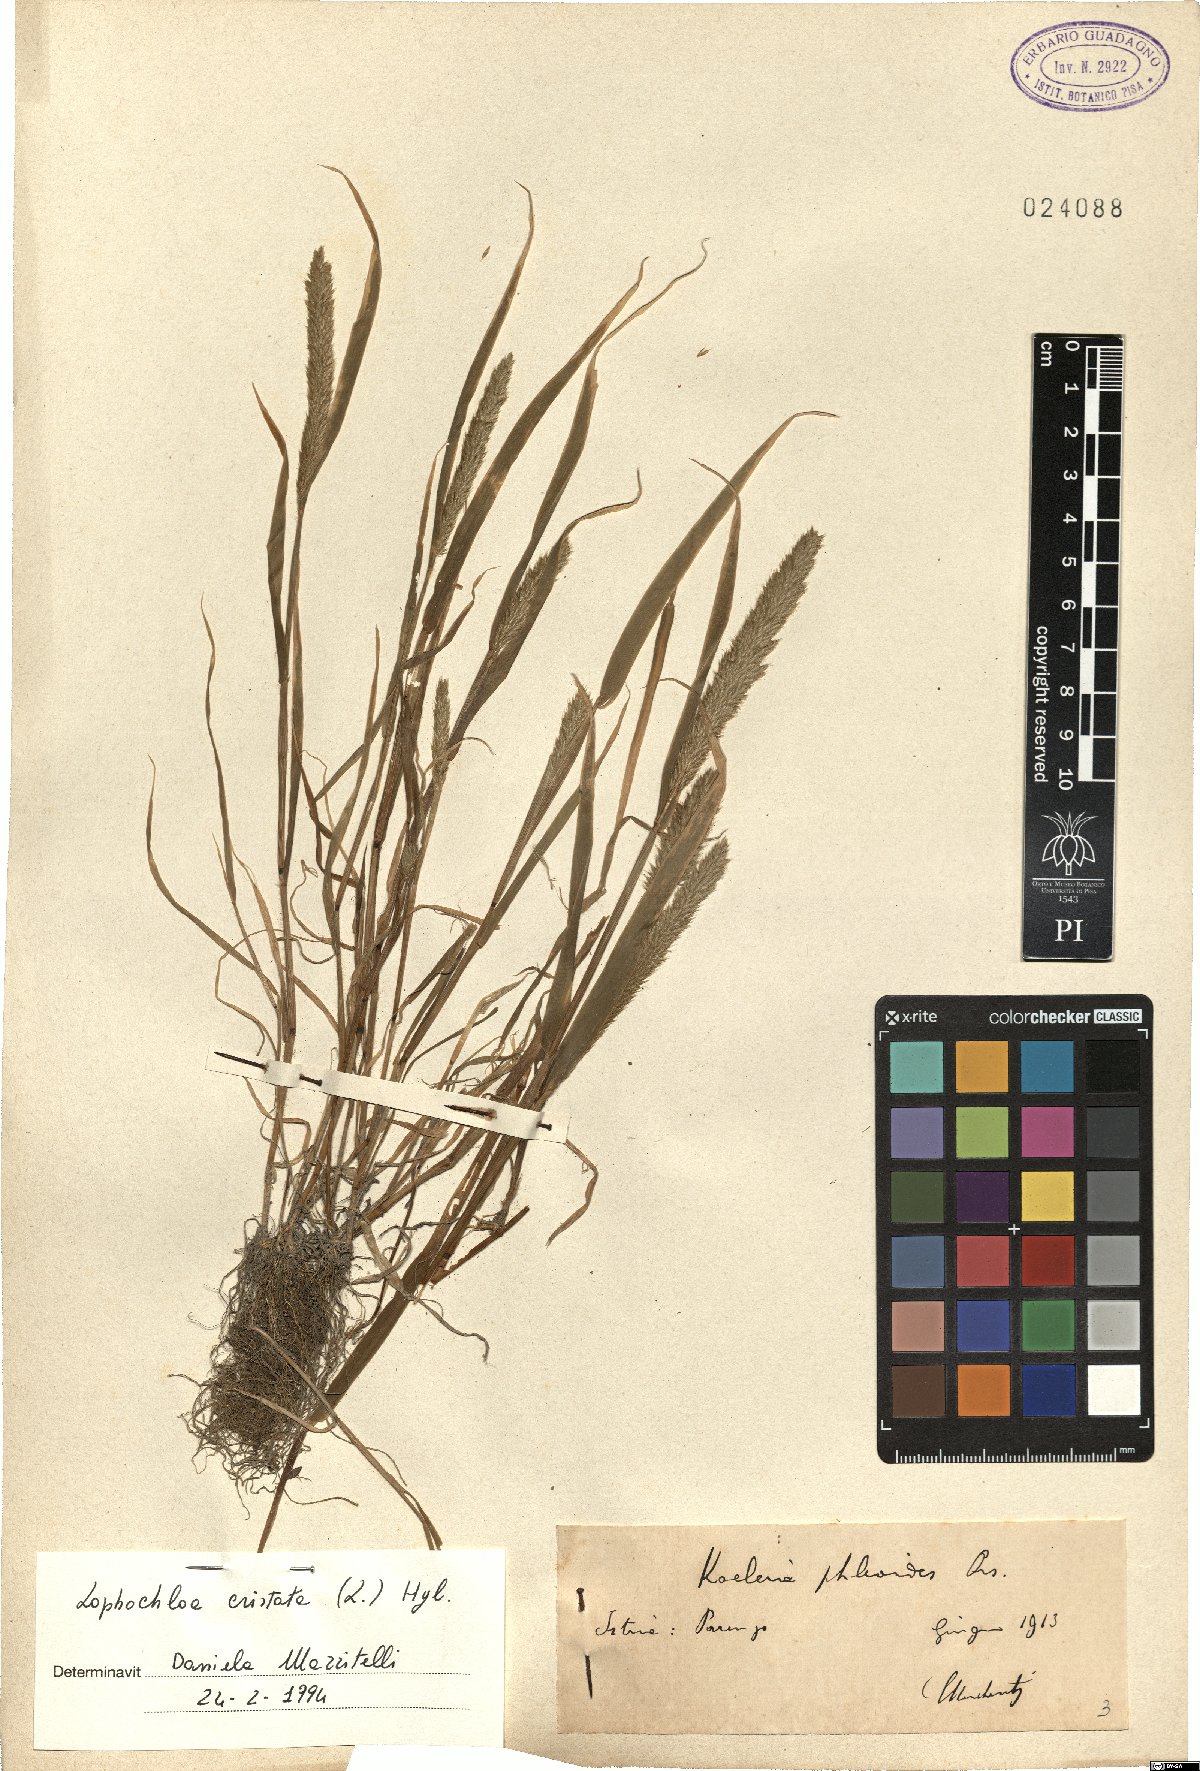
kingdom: Plantae
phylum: Tracheophyta
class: Liliopsida
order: Poales
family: Poaceae
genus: Rostraria
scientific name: Rostraria cristata
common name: Mediterranean hair-grass
